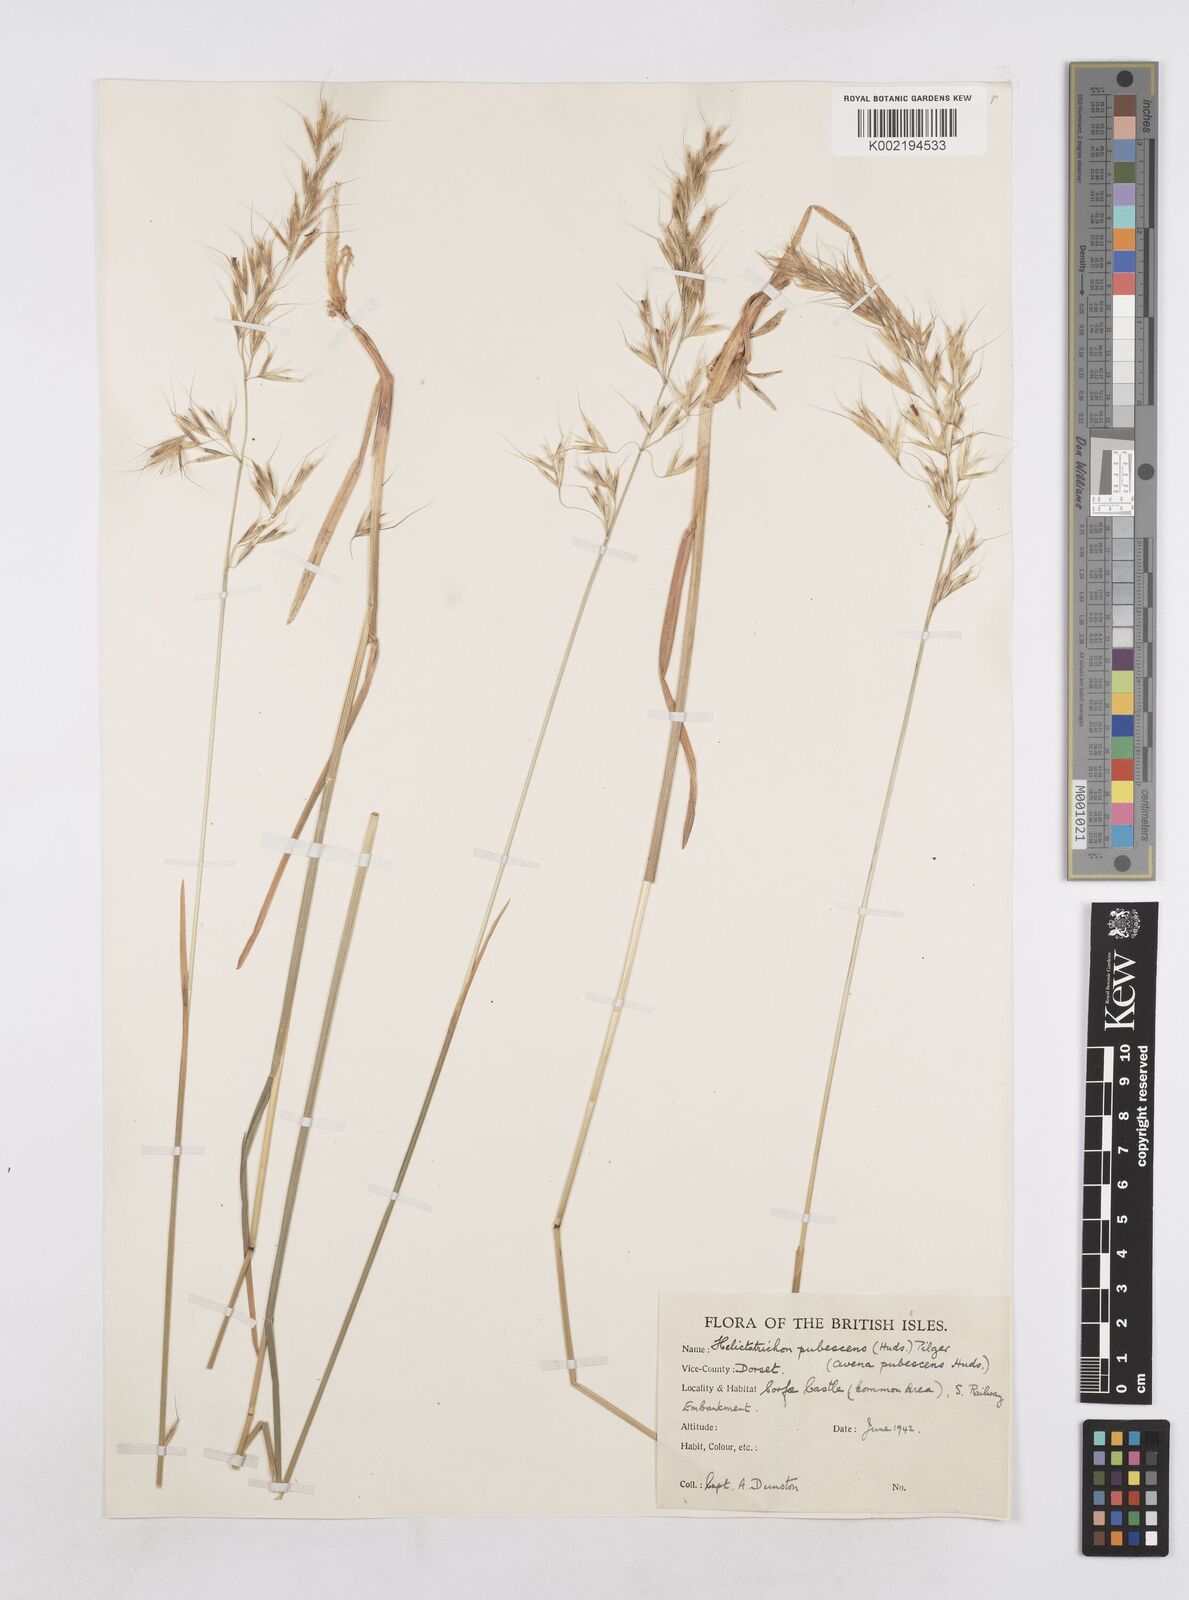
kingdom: Plantae
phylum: Tracheophyta
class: Liliopsida
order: Poales
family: Poaceae
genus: Avenula
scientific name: Avenula pubescens
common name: Downy alpine oatgrass
